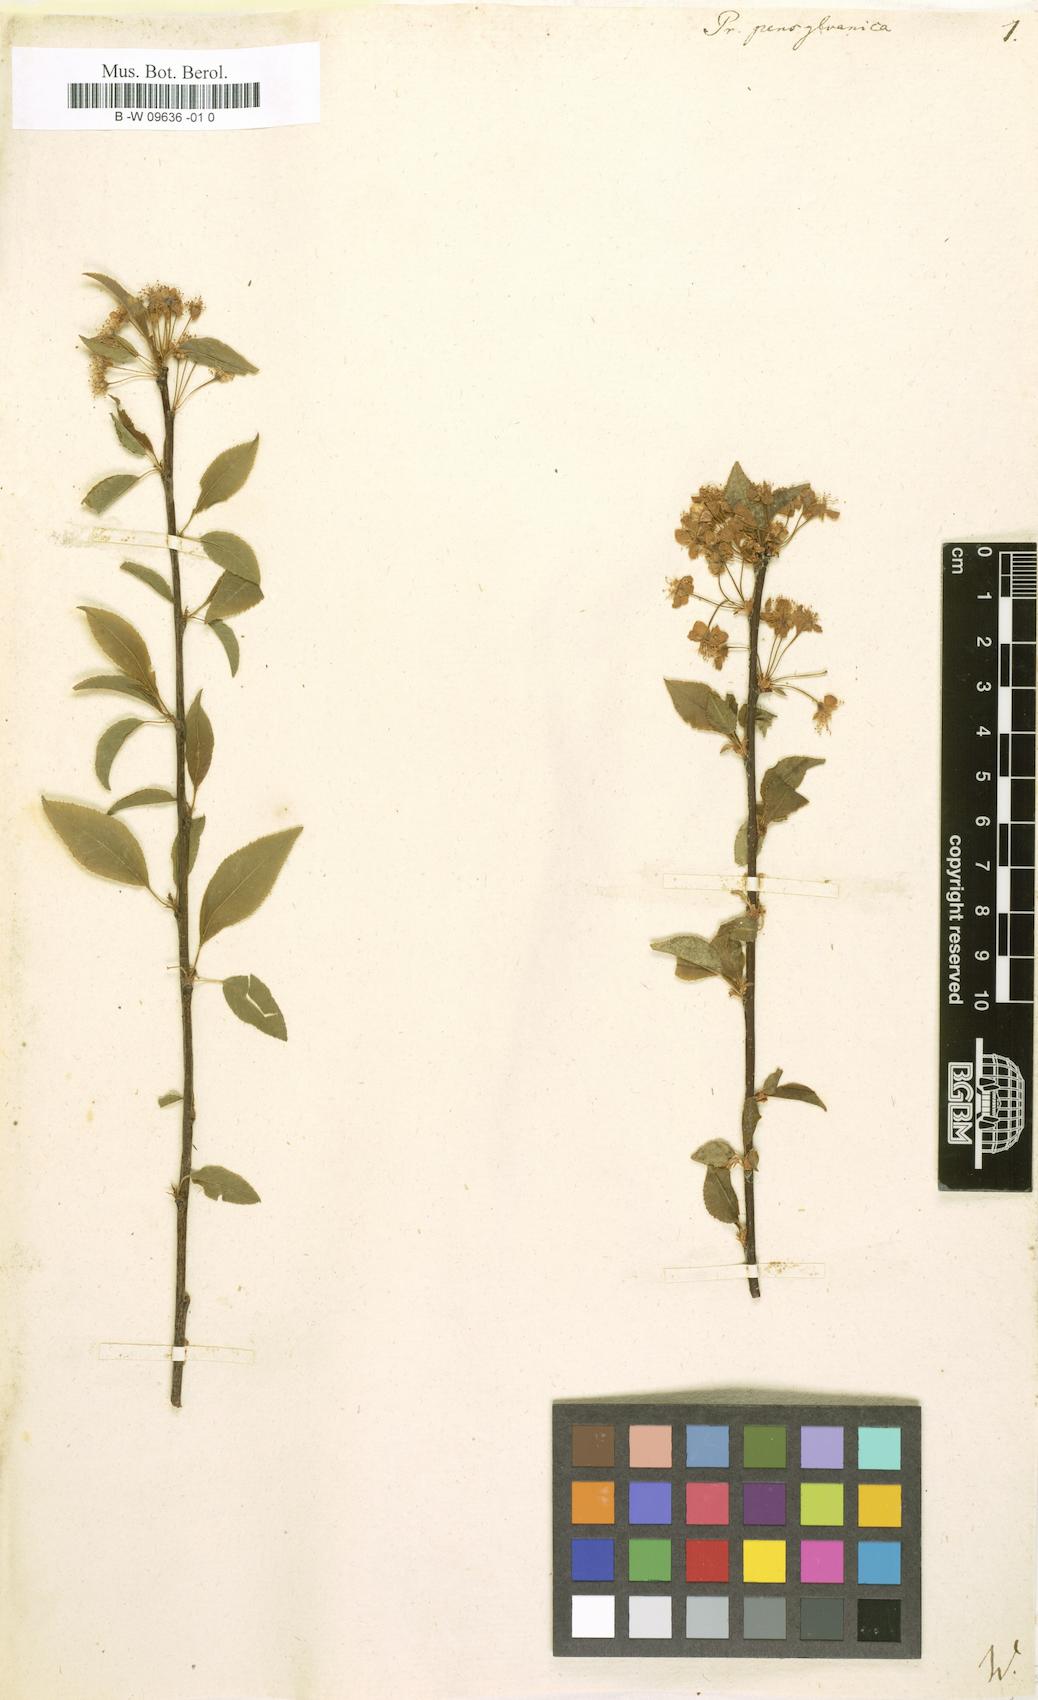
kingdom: Plantae
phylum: Tracheophyta
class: Magnoliopsida
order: Rosales
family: Rosaceae
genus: Prunus
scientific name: Prunus pensylvanica
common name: Pin cherry
